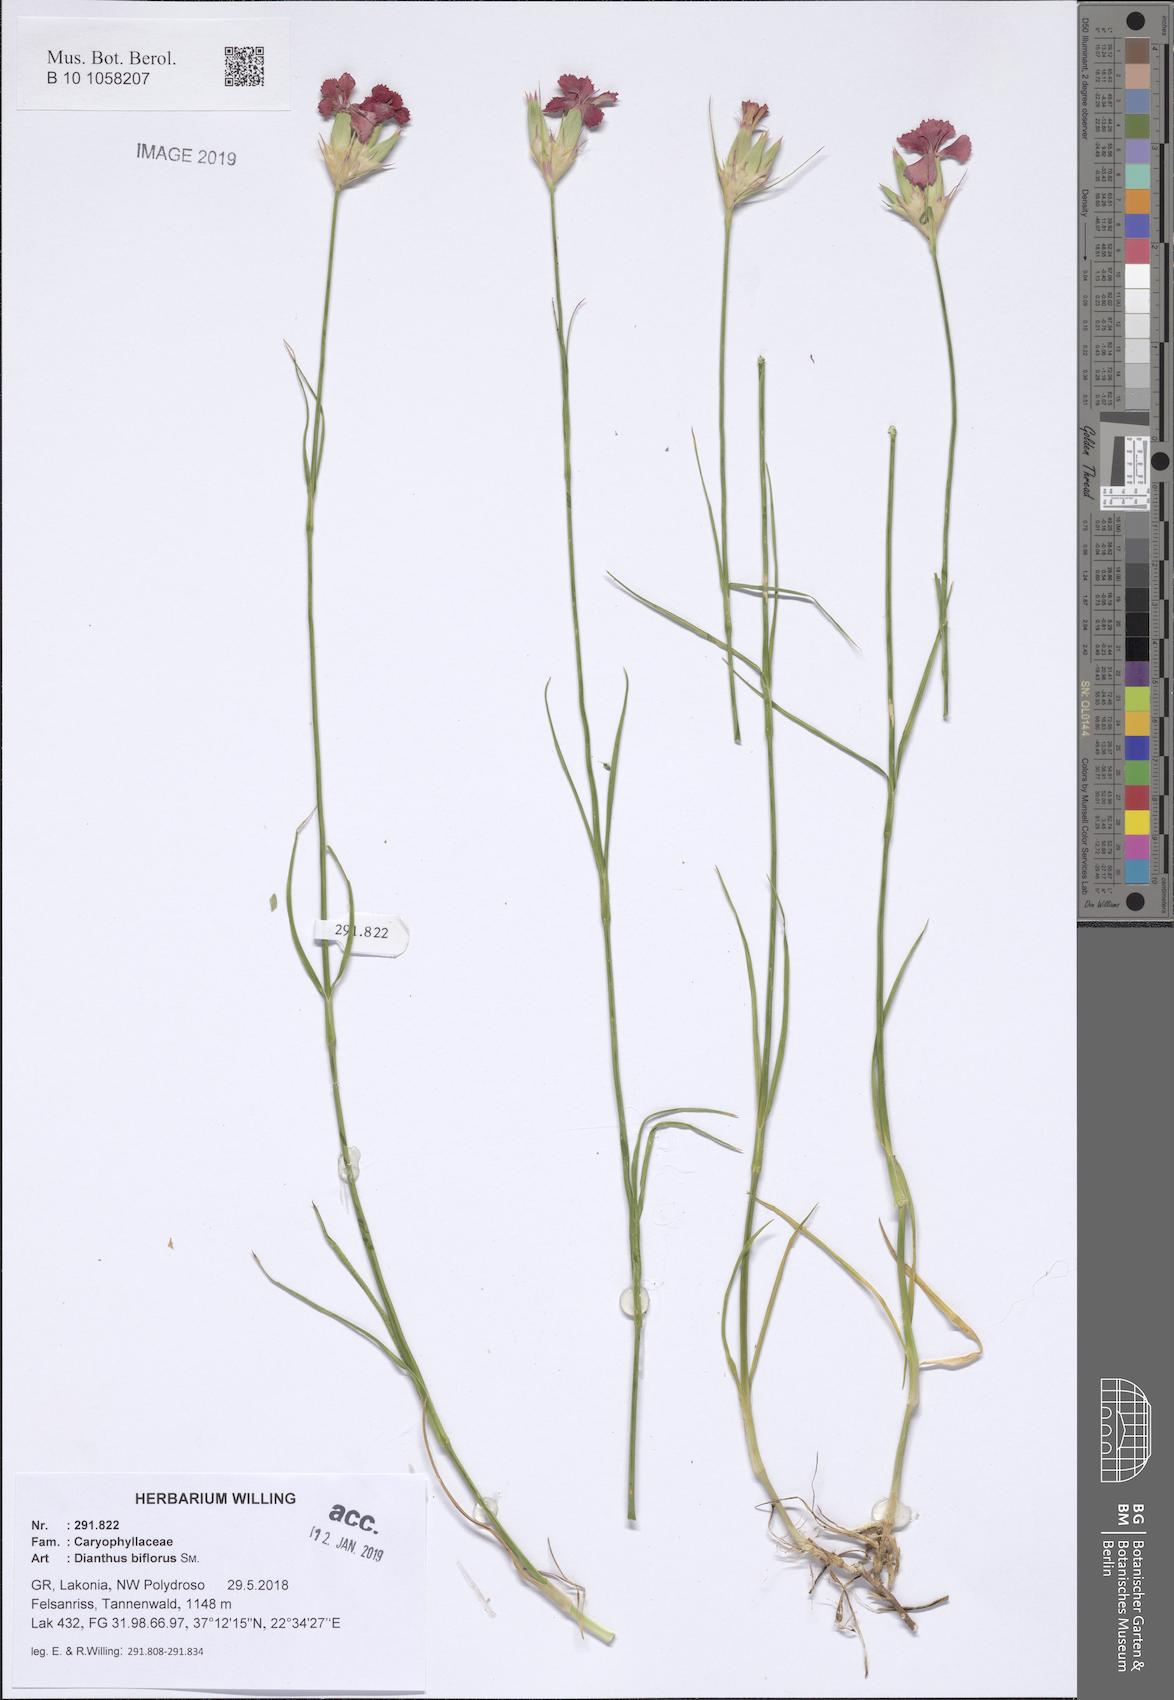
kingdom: Plantae
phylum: Tracheophyta
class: Magnoliopsida
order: Caryophyllales
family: Caryophyllaceae
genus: Dianthus
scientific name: Dianthus biflorus
